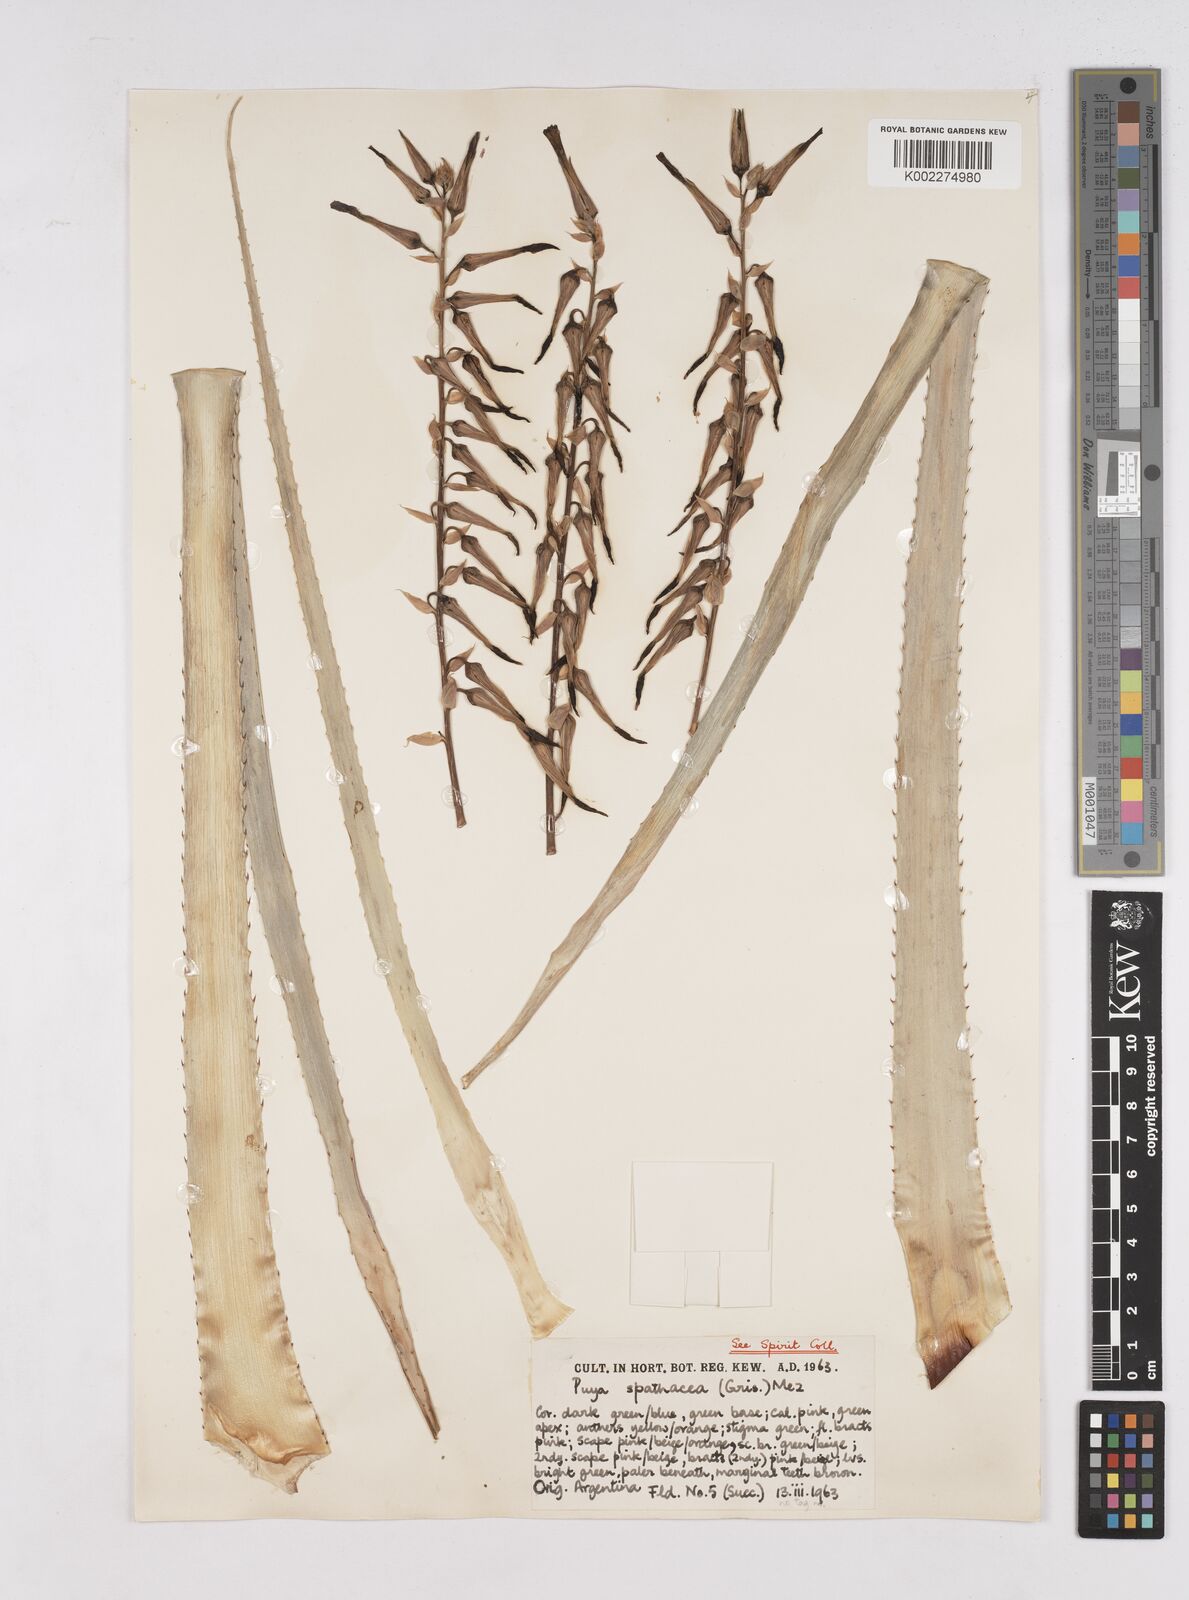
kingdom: Plantae
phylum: Tracheophyta
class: Liliopsida
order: Poales
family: Bromeliaceae
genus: Puya
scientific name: Puya spathacea
